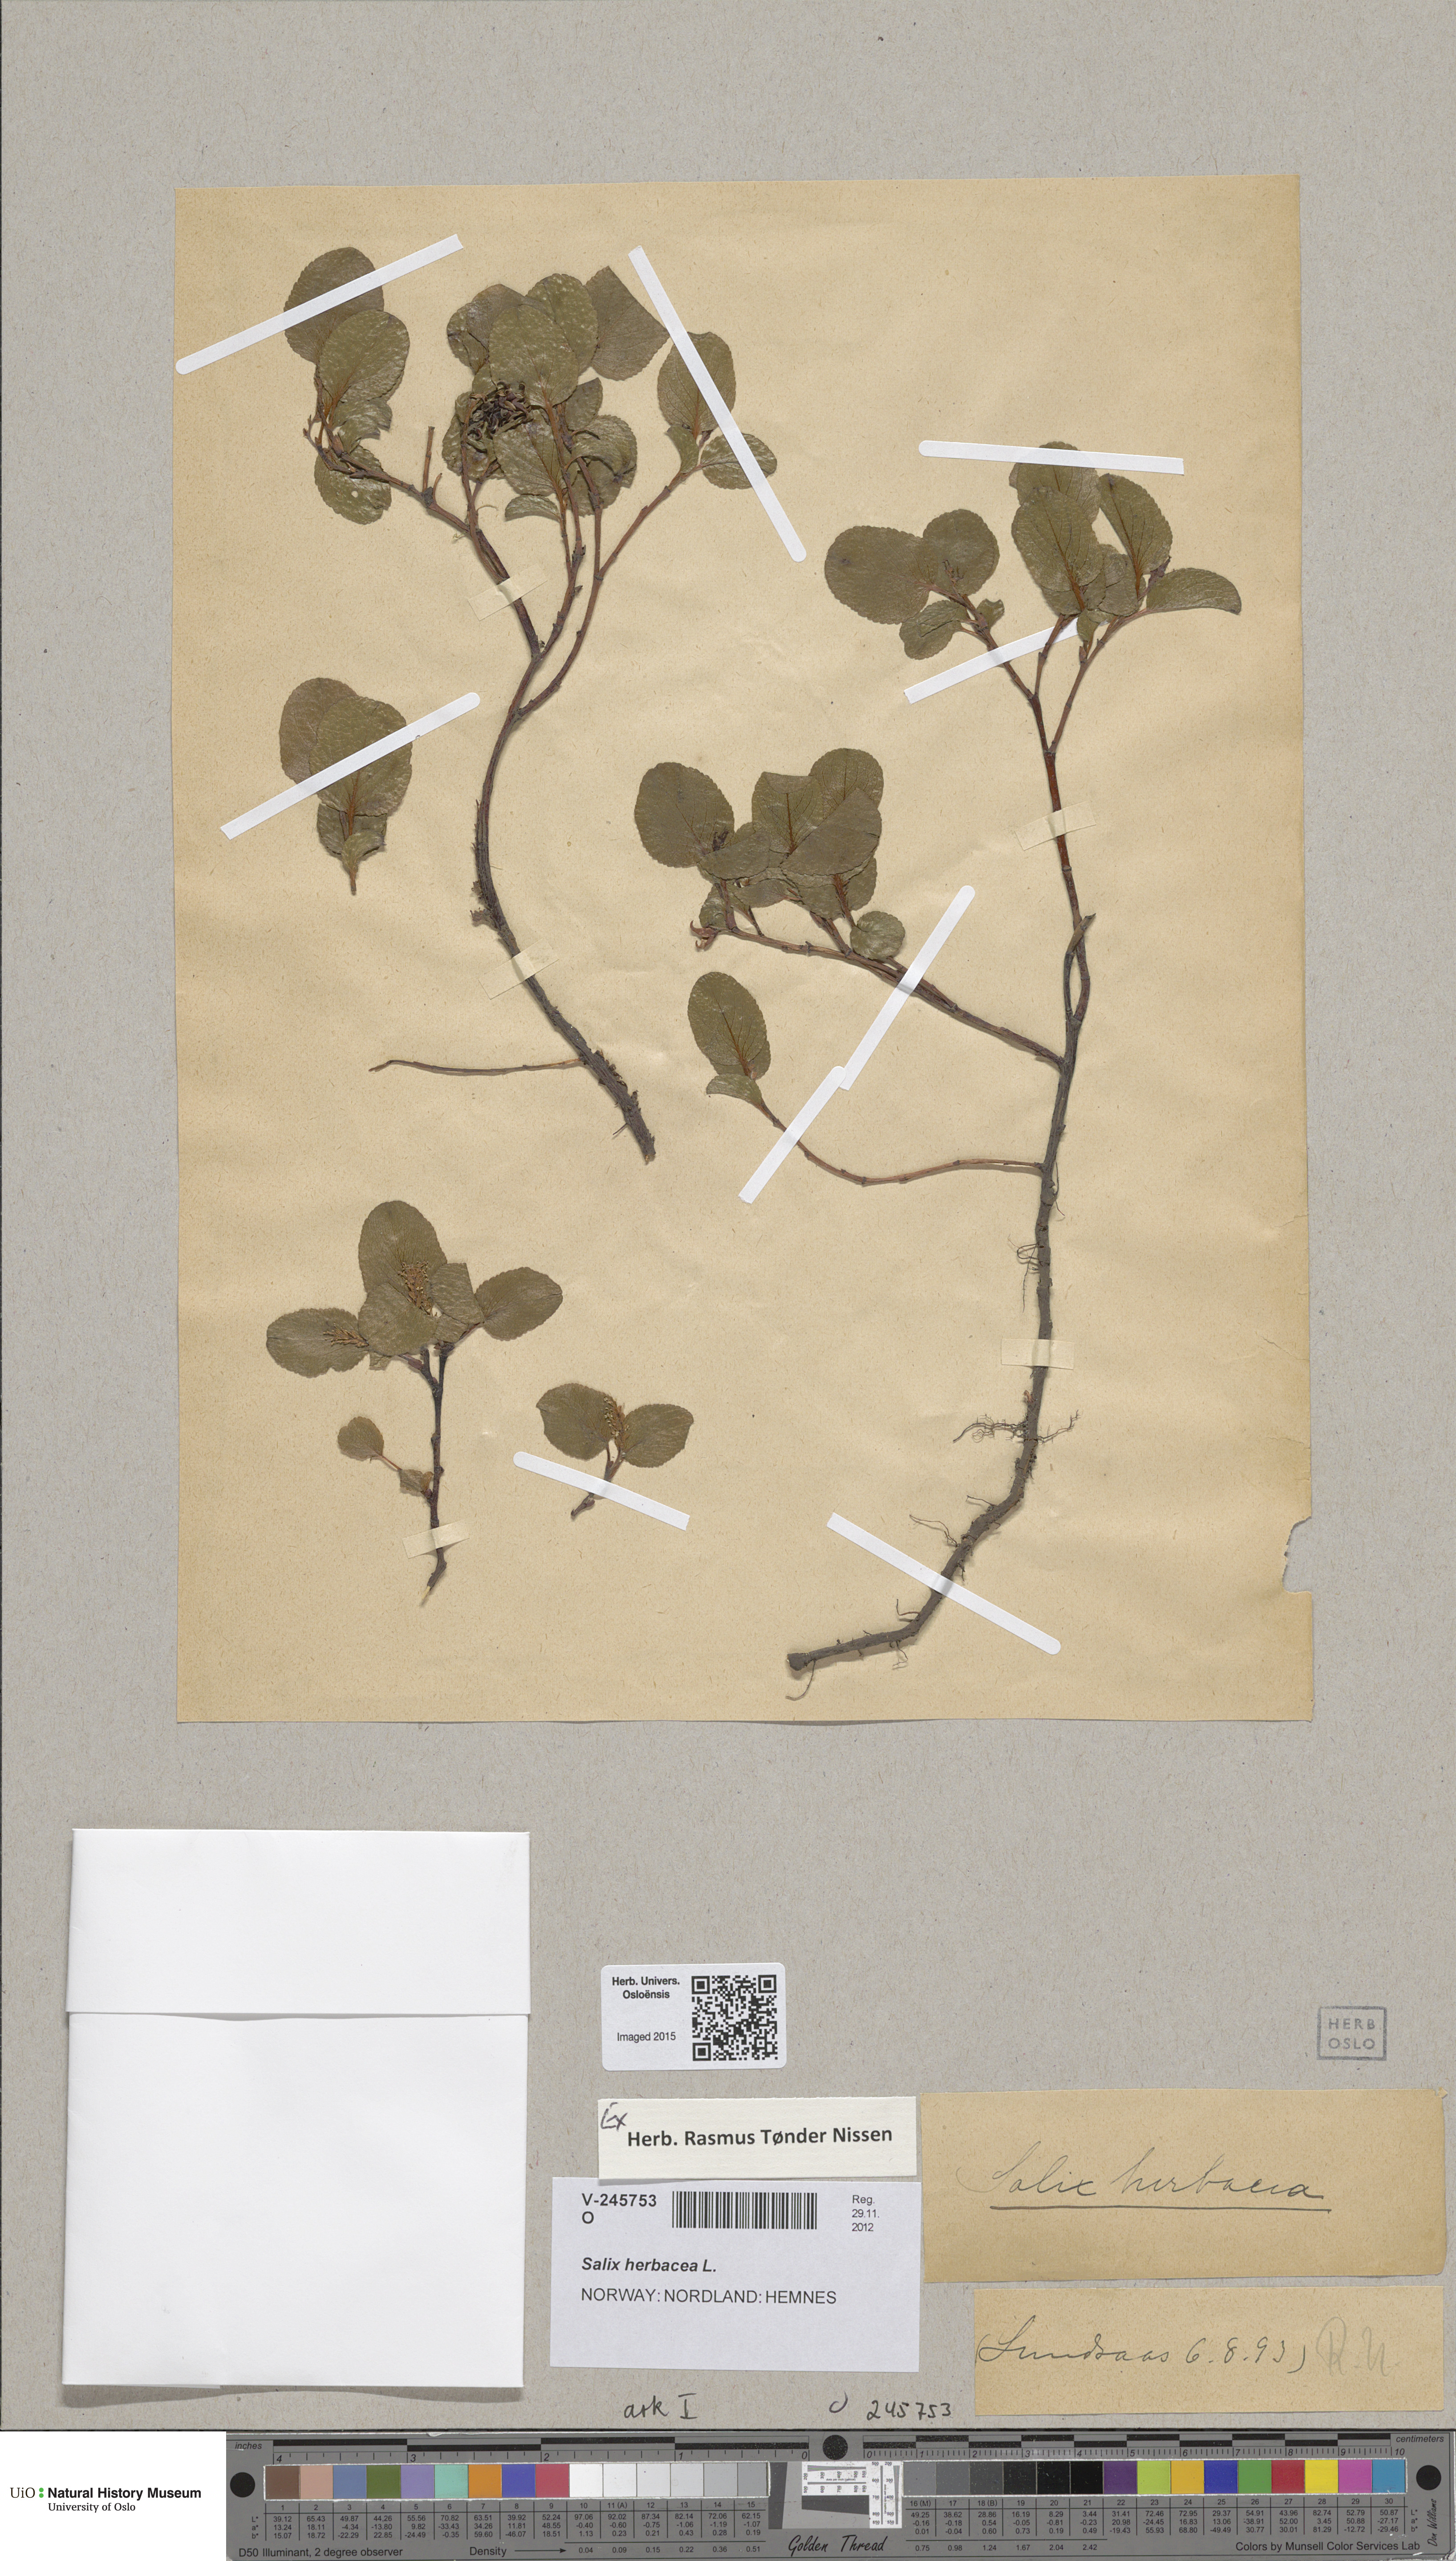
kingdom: Plantae
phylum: Tracheophyta
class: Magnoliopsida
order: Malpighiales
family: Salicaceae
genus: Salix
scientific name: Salix herbacea
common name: Dwarf willow
